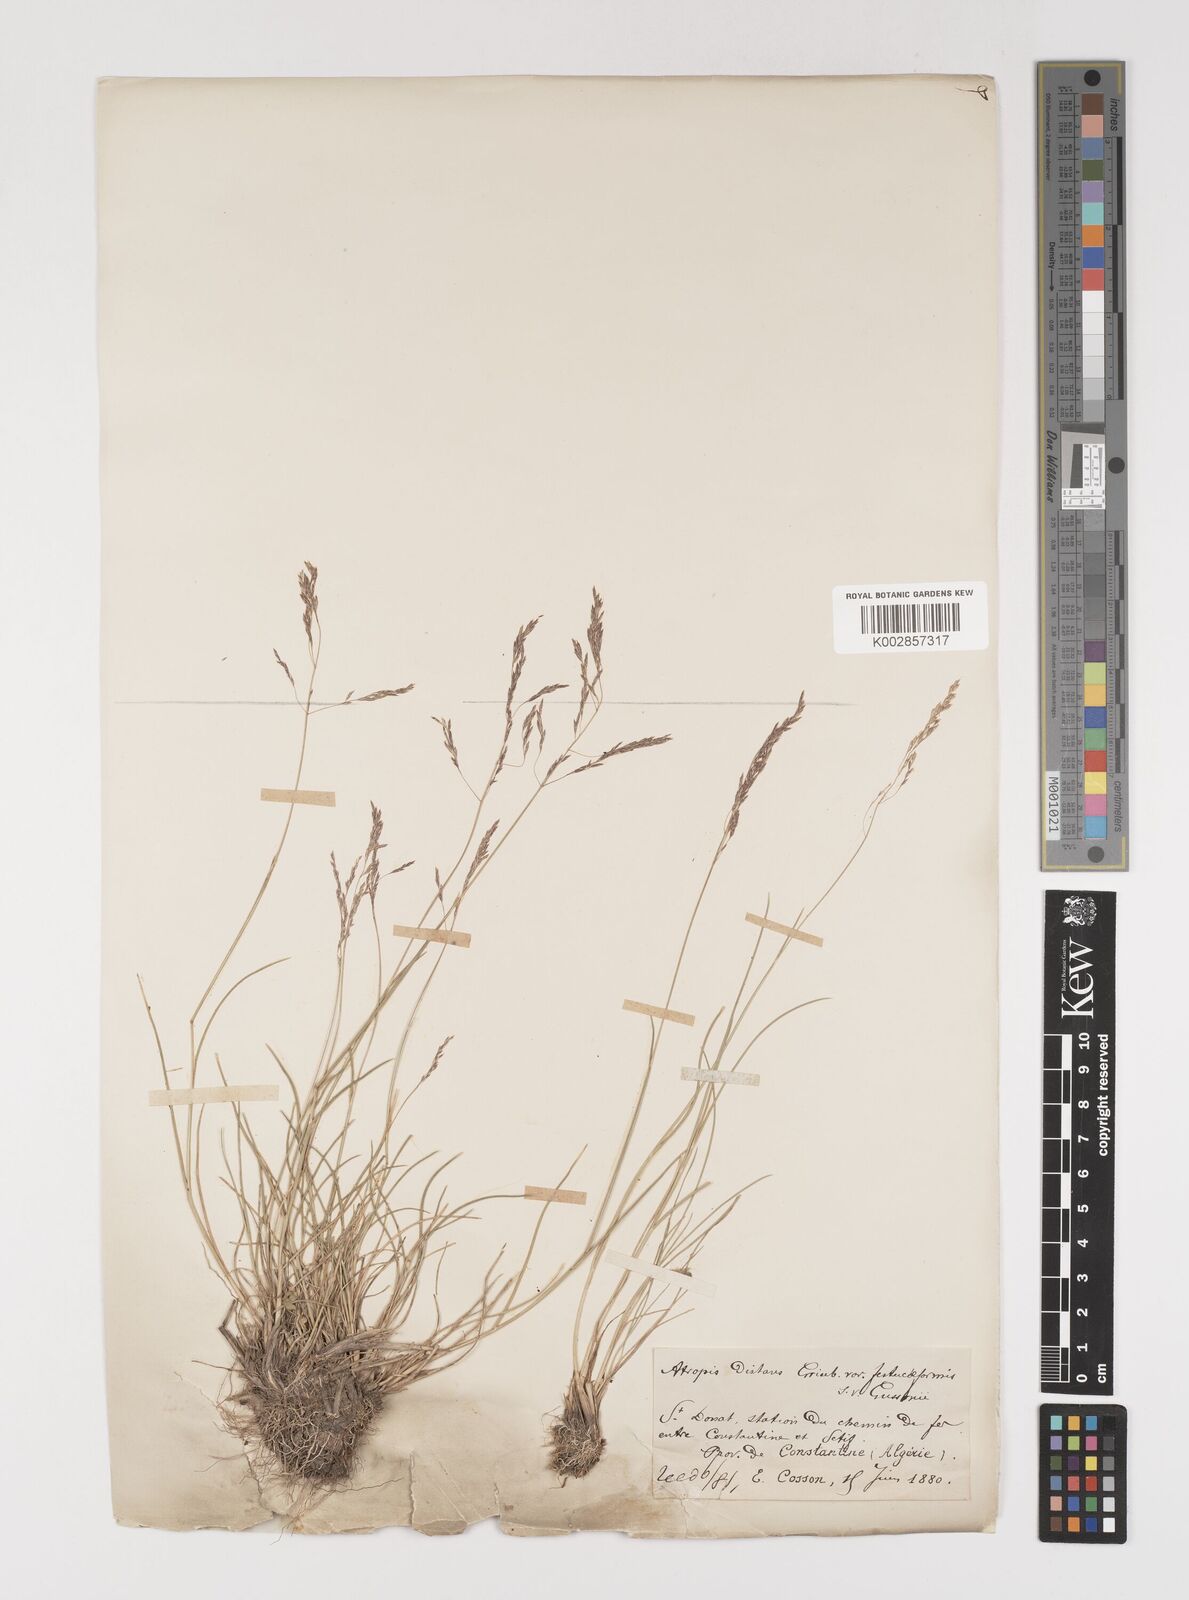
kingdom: Plantae
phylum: Tracheophyta
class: Liliopsida
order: Poales
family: Poaceae
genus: Puccinellia
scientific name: Puccinellia distans
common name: Weeping alkaligrass
